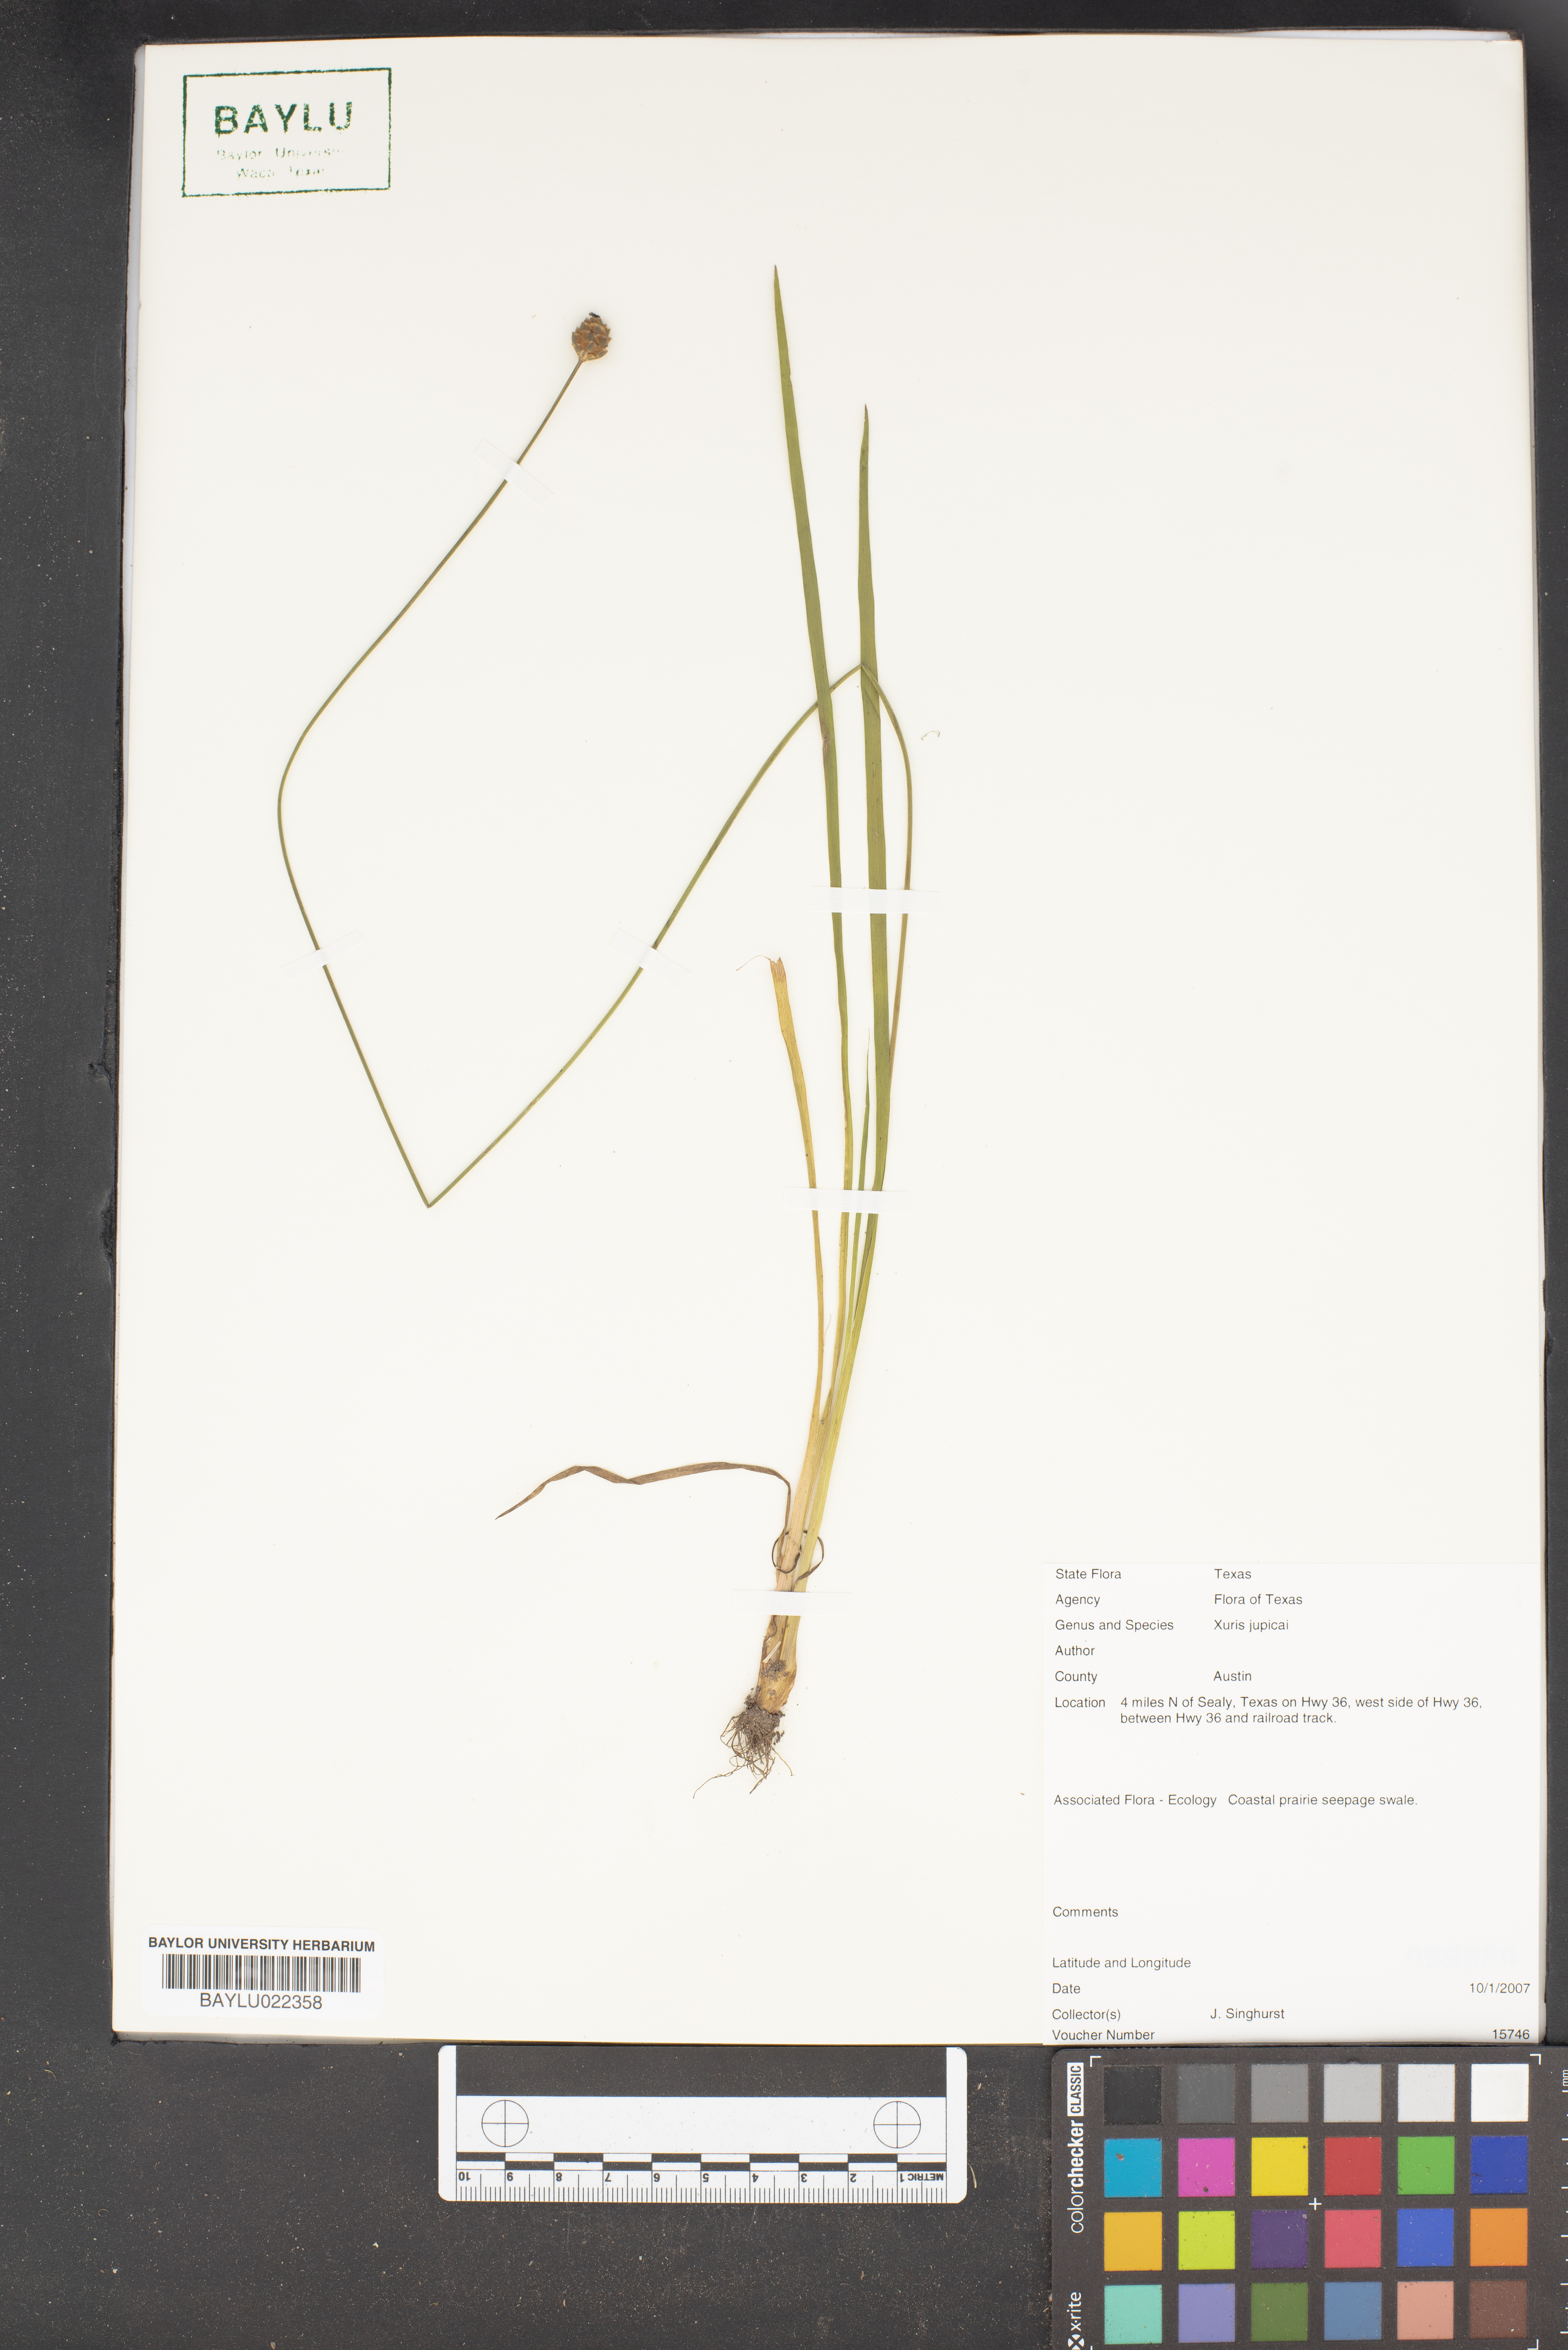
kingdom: Plantae
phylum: Tracheophyta
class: Liliopsida
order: Poales
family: Xyridaceae
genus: Xyris
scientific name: Xyris jupicai
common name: Richard's yelloweyed grass
